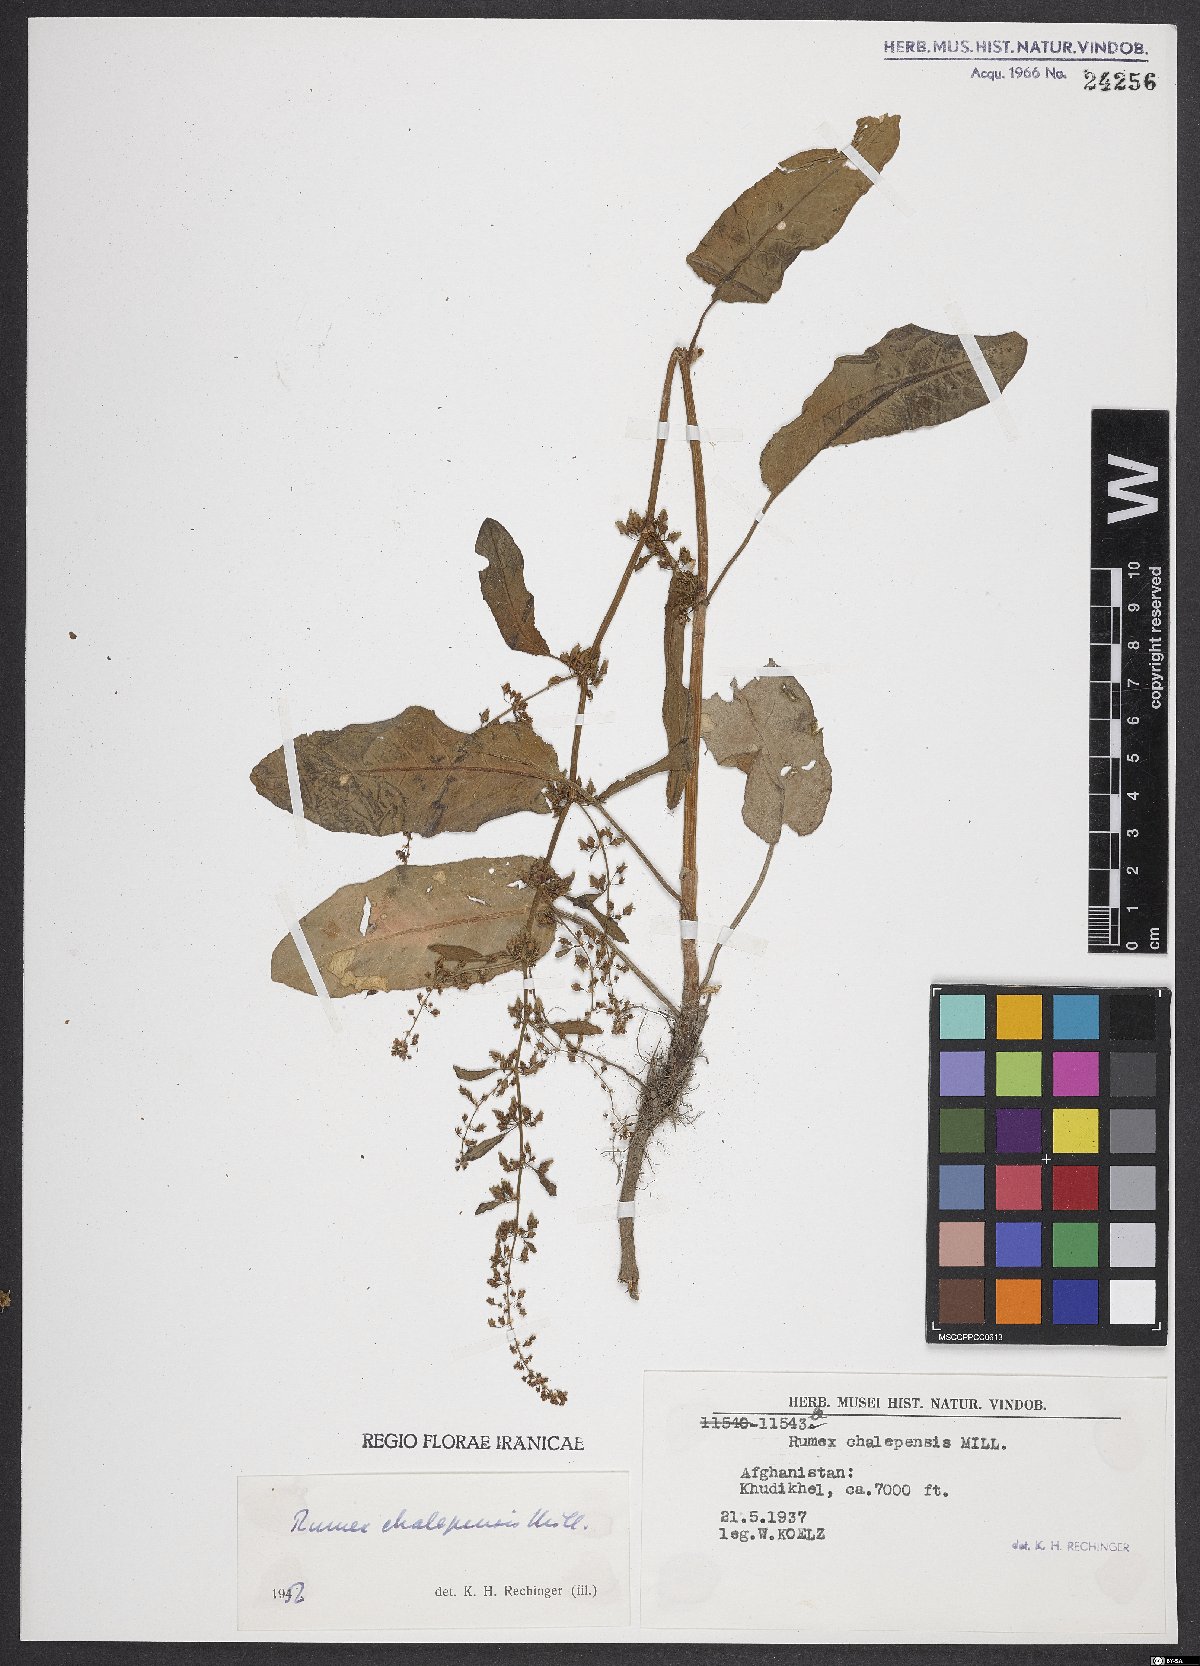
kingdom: Plantae
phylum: Tracheophyta
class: Magnoliopsida
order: Caryophyllales
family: Polygonaceae
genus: Rumex
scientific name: Rumex chalepensis
